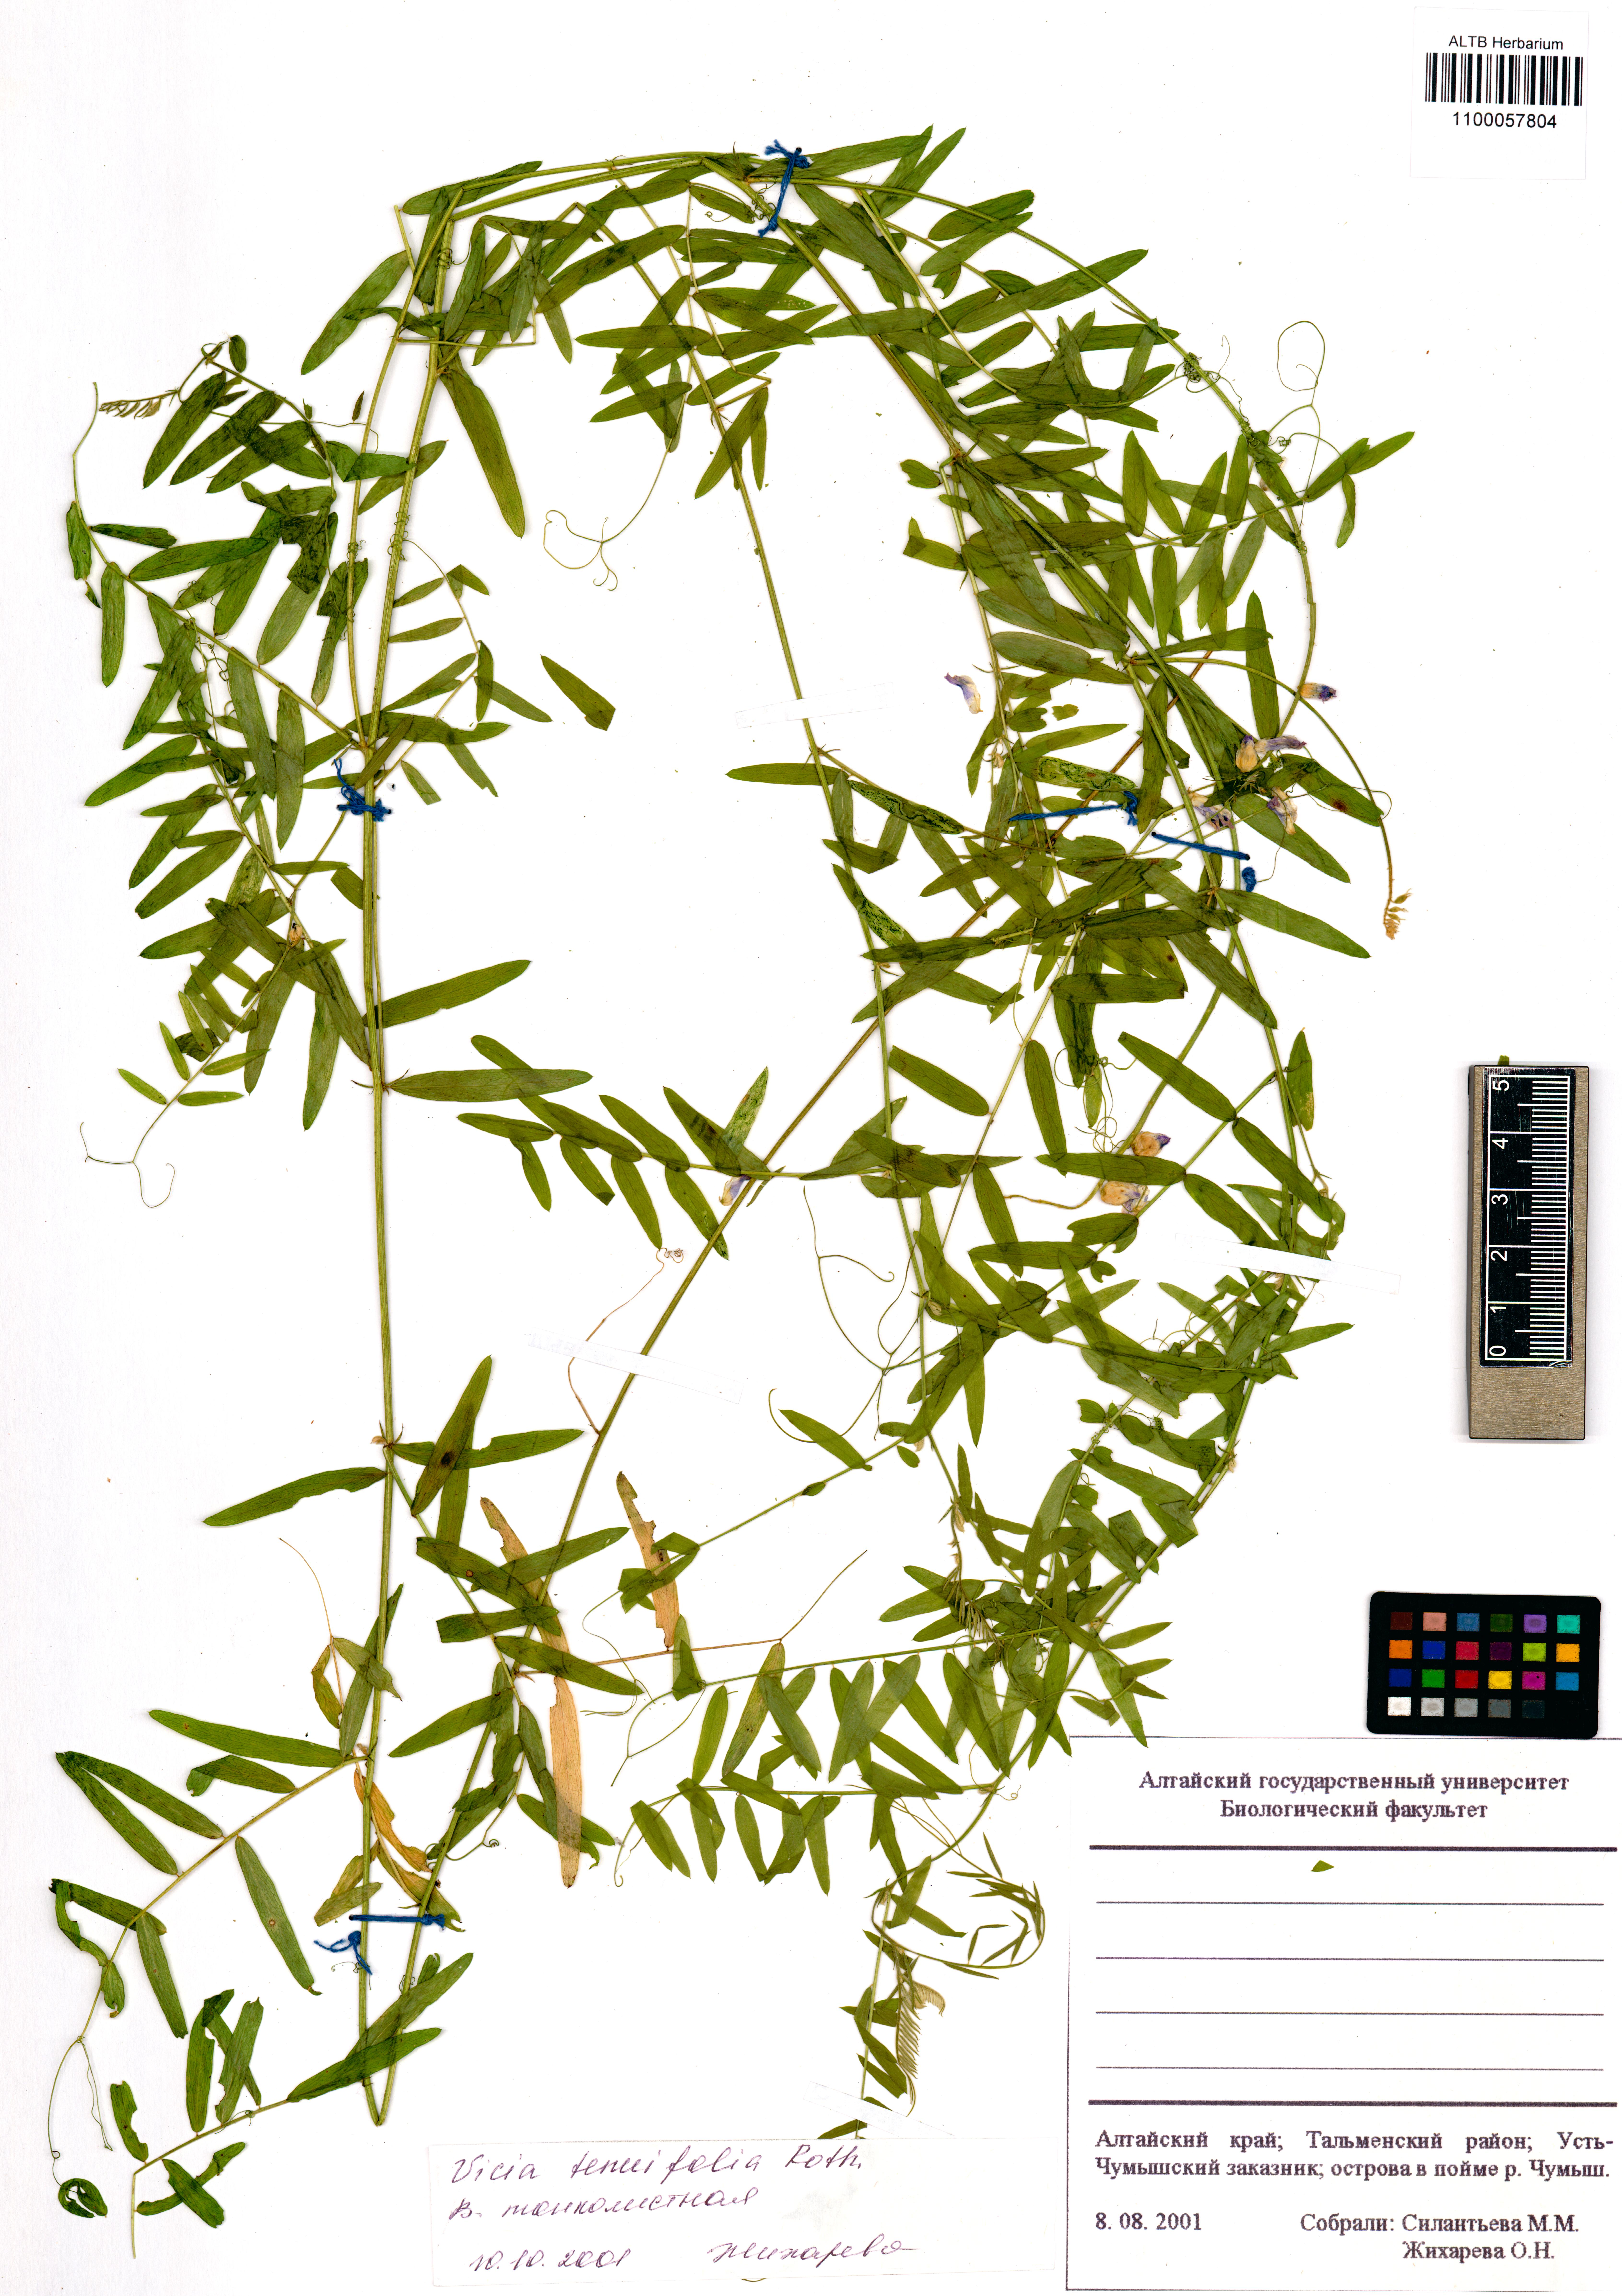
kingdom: Plantae
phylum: Tracheophyta
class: Magnoliopsida
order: Fabales
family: Fabaceae
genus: Vicia
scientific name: Vicia tenuifolia
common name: Fine-leaved vetch
